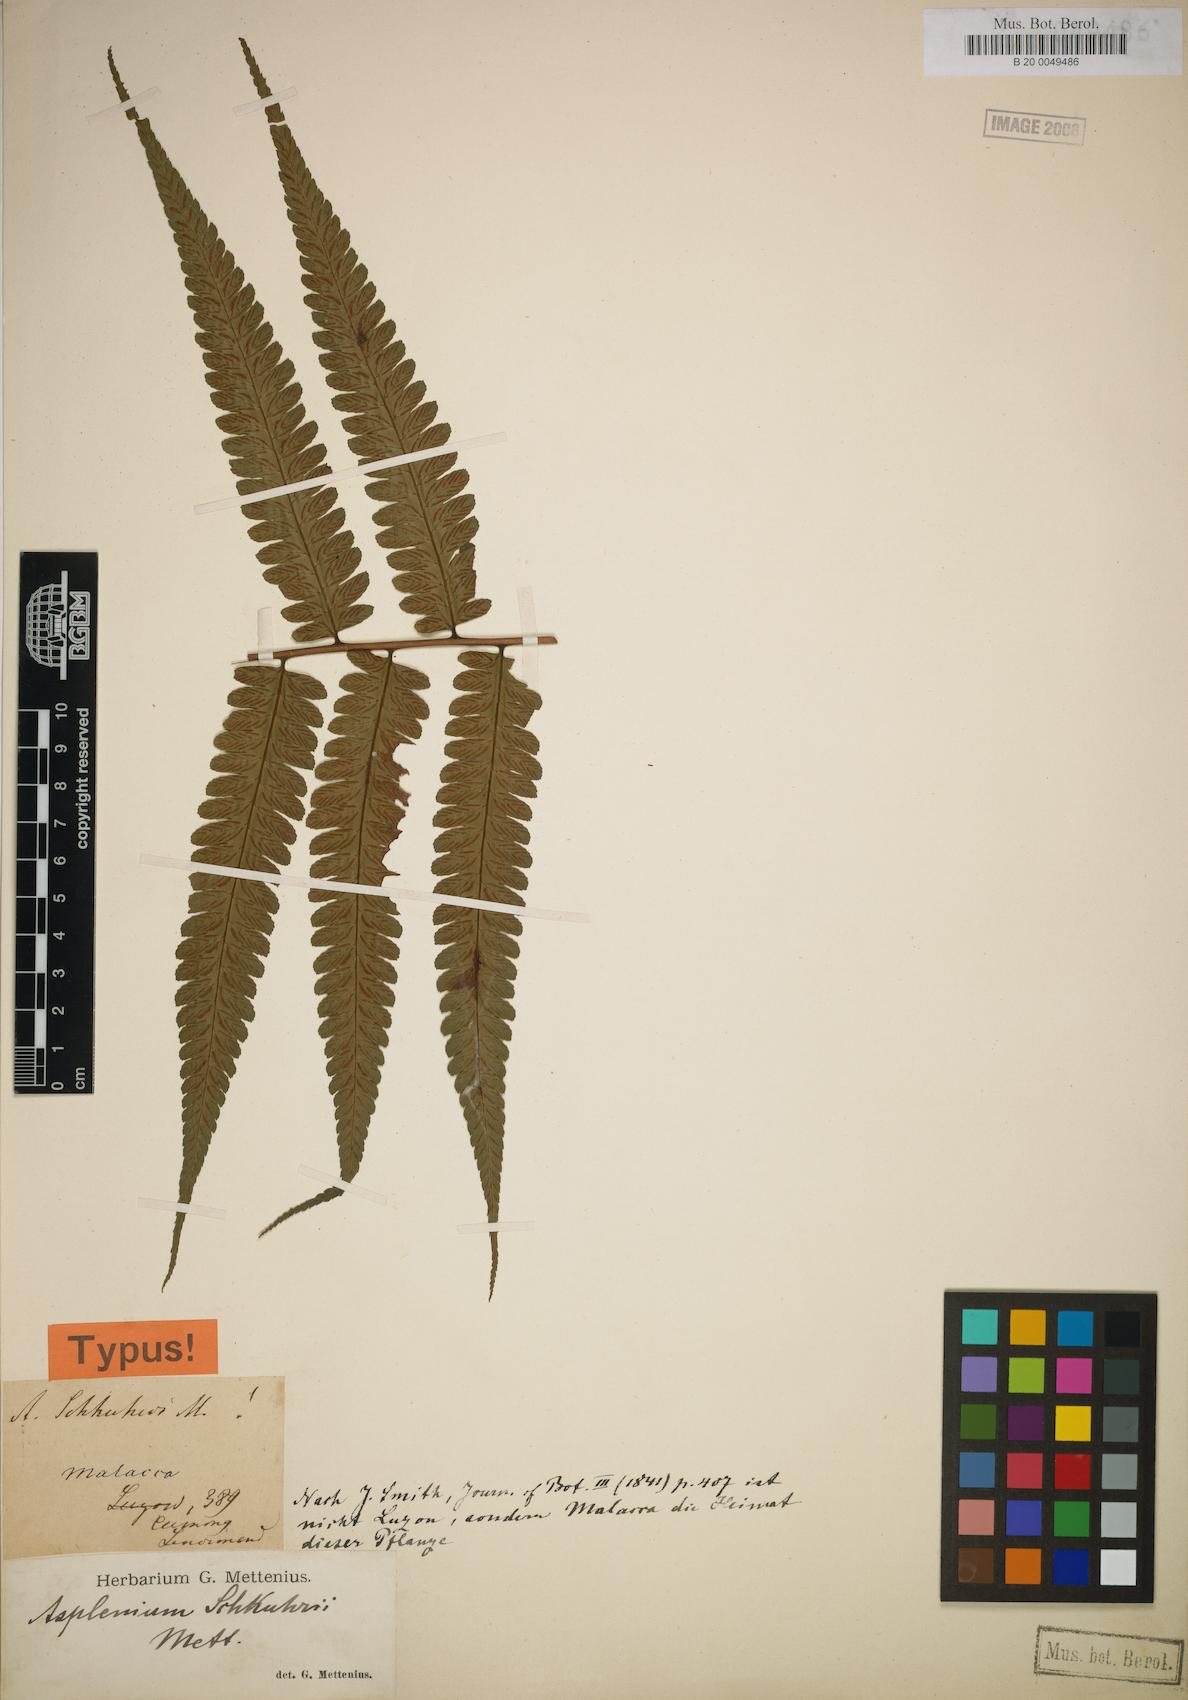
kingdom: Plantae
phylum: Tracheophyta
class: Polypodiopsida
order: Polypodiales
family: Athyriaceae
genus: Diplazium
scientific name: Diplazium schkuhrii
